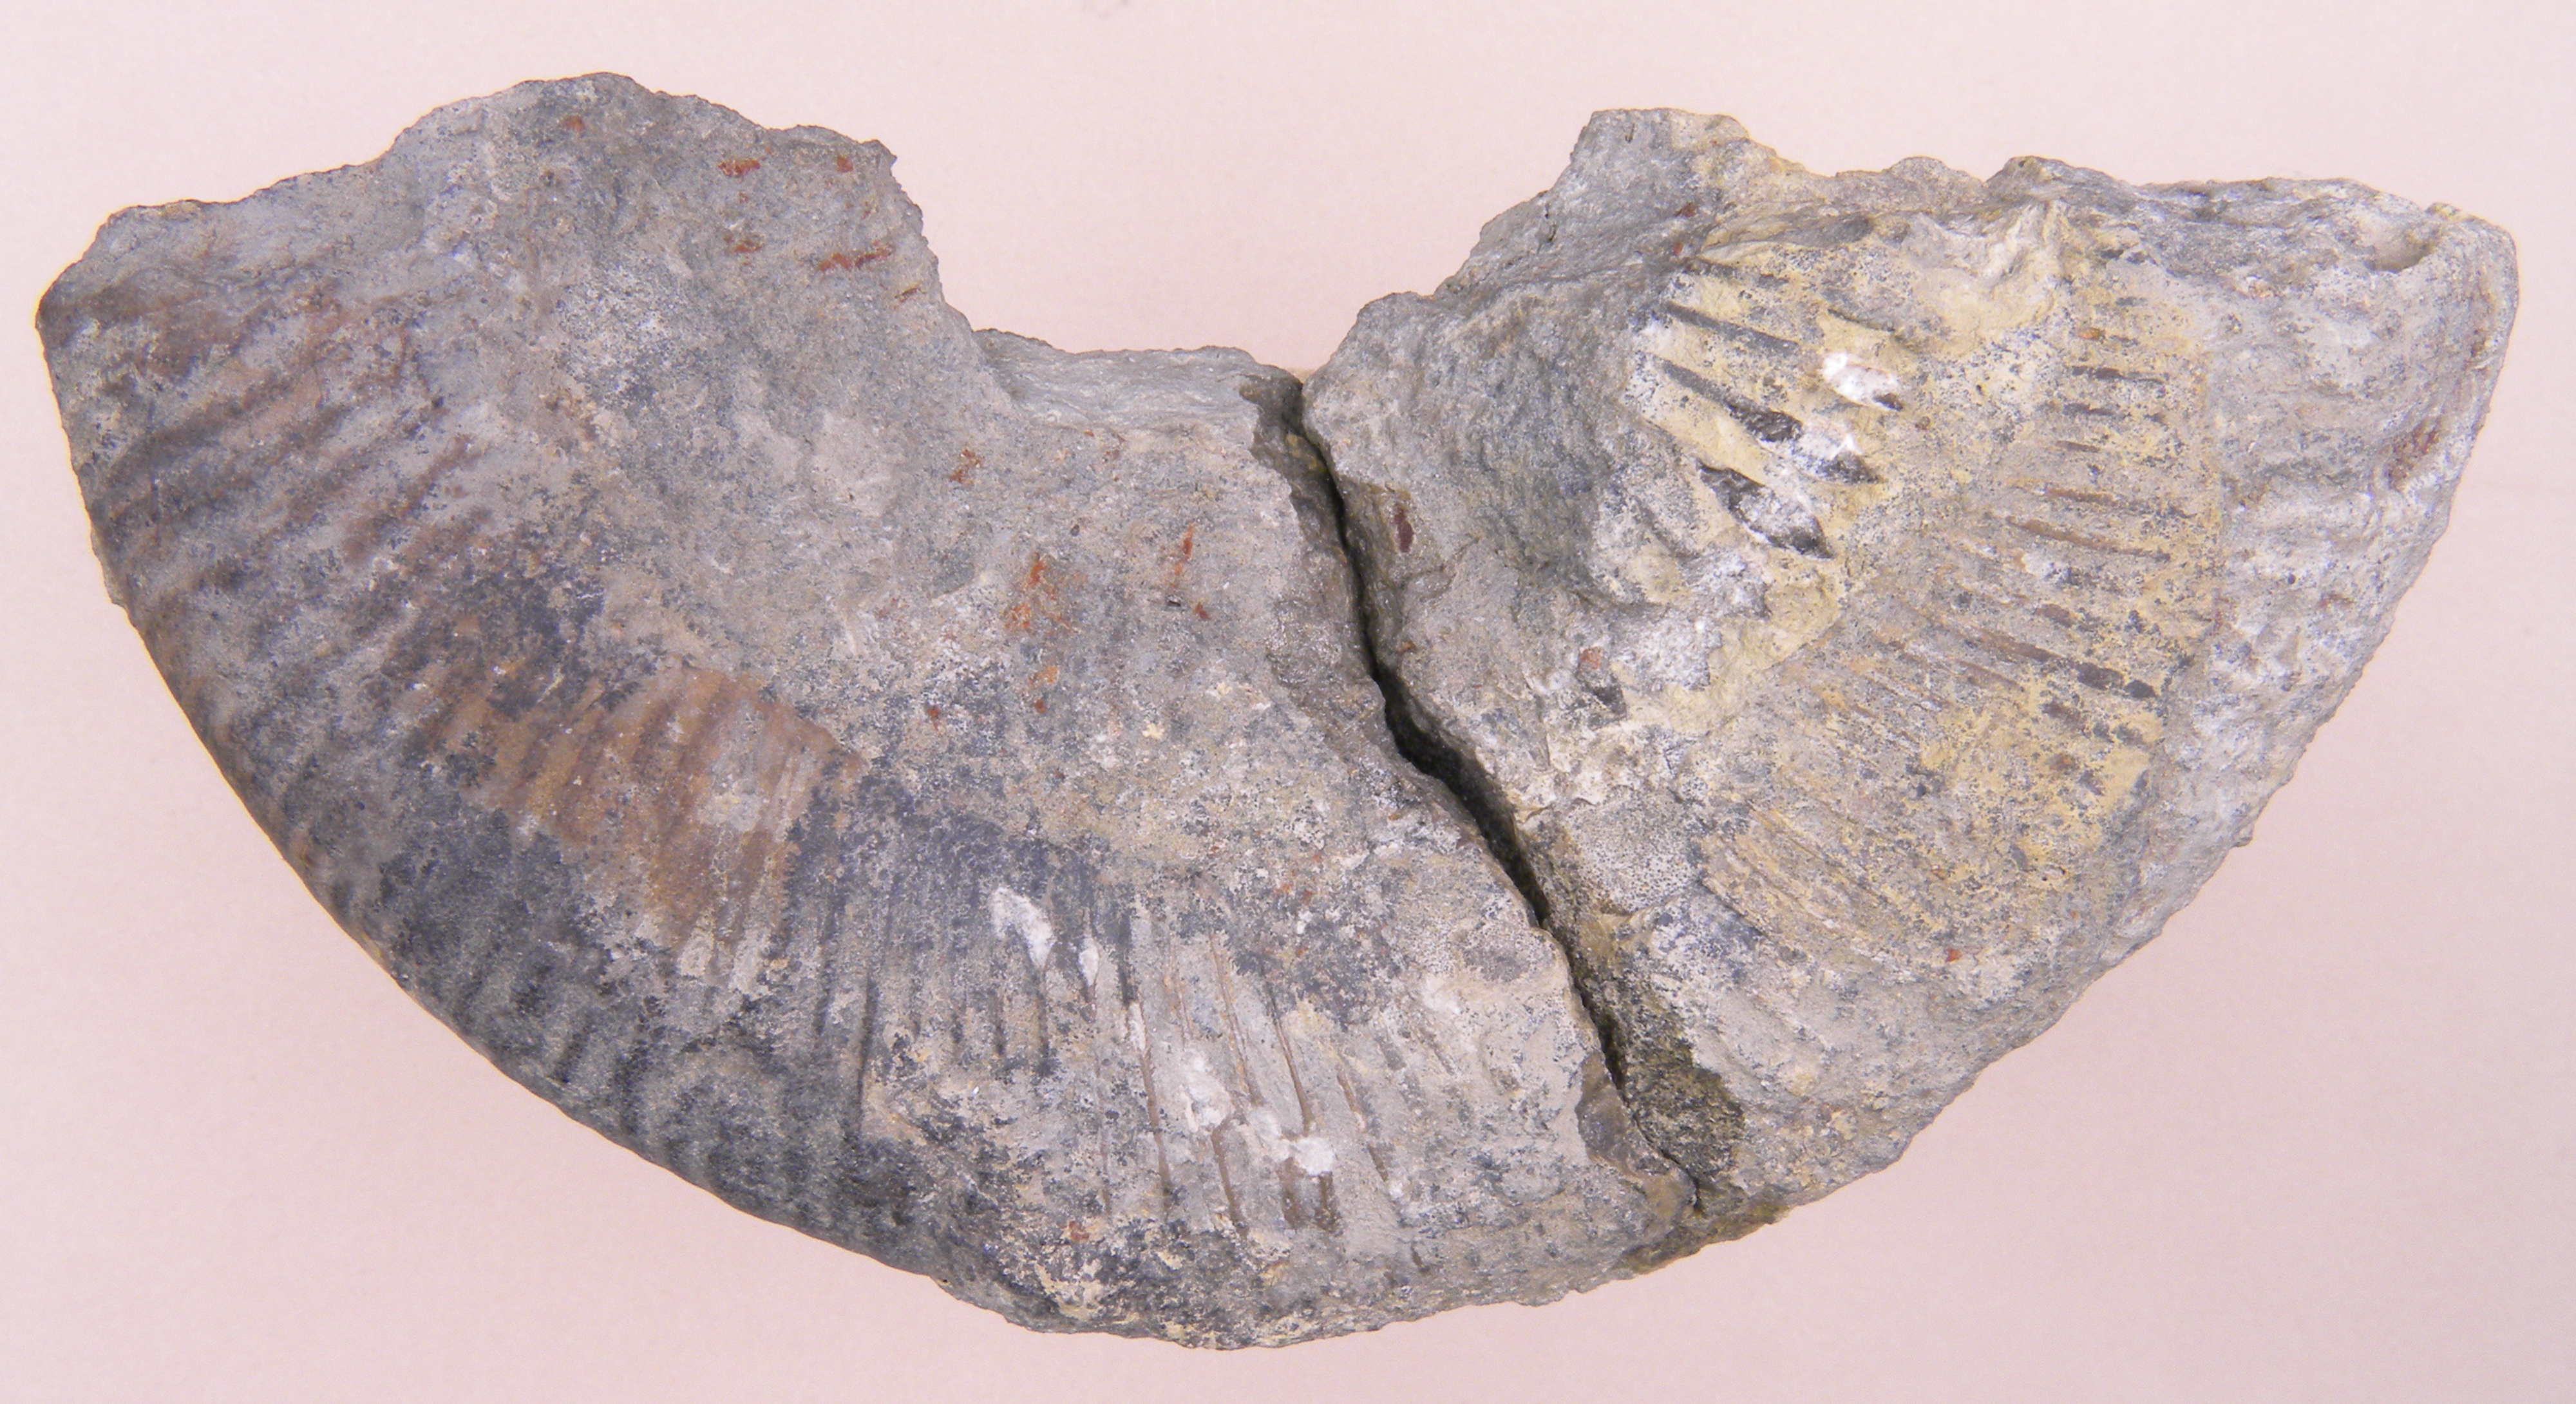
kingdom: Animalia
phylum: Mollusca
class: Cephalopoda
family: Dactylioceratidae
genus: Dactylioceras
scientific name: Dactylioceras
